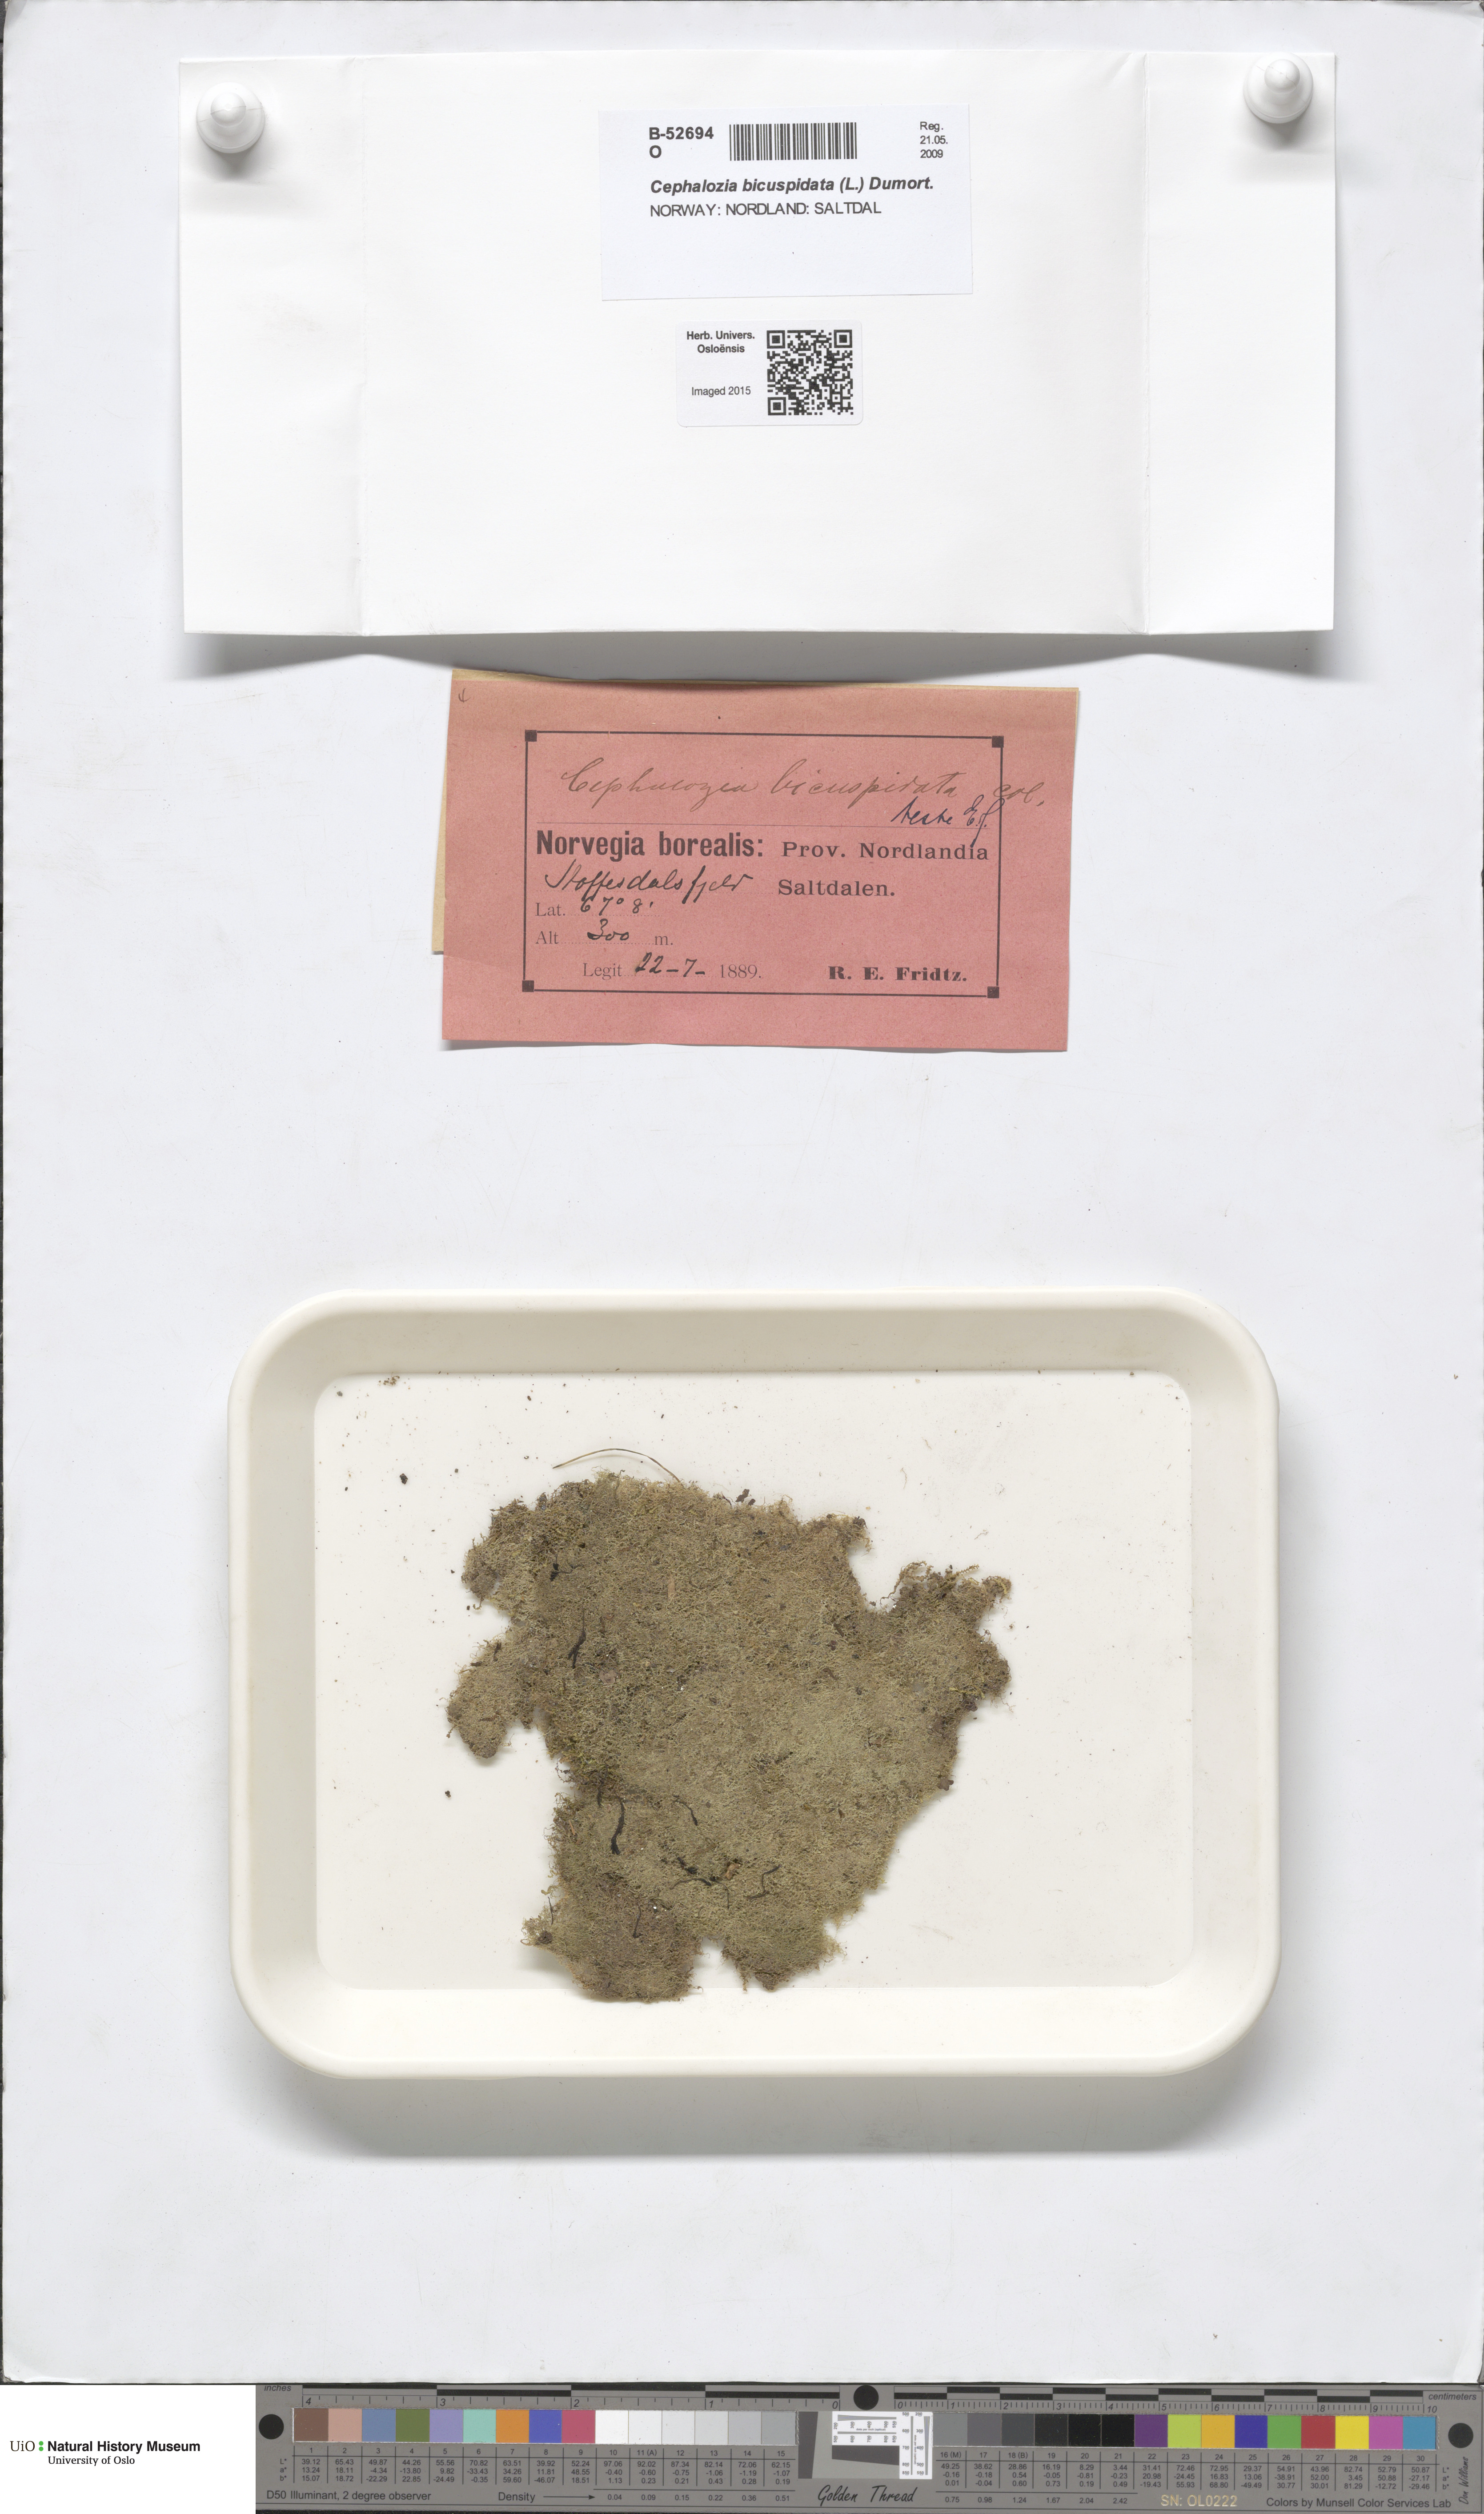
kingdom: Plantae
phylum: Marchantiophyta
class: Jungermanniopsida
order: Jungermanniales
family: Cephaloziaceae
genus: Cephalozia
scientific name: Cephalozia bicuspidata
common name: Two-horned pincerwort
